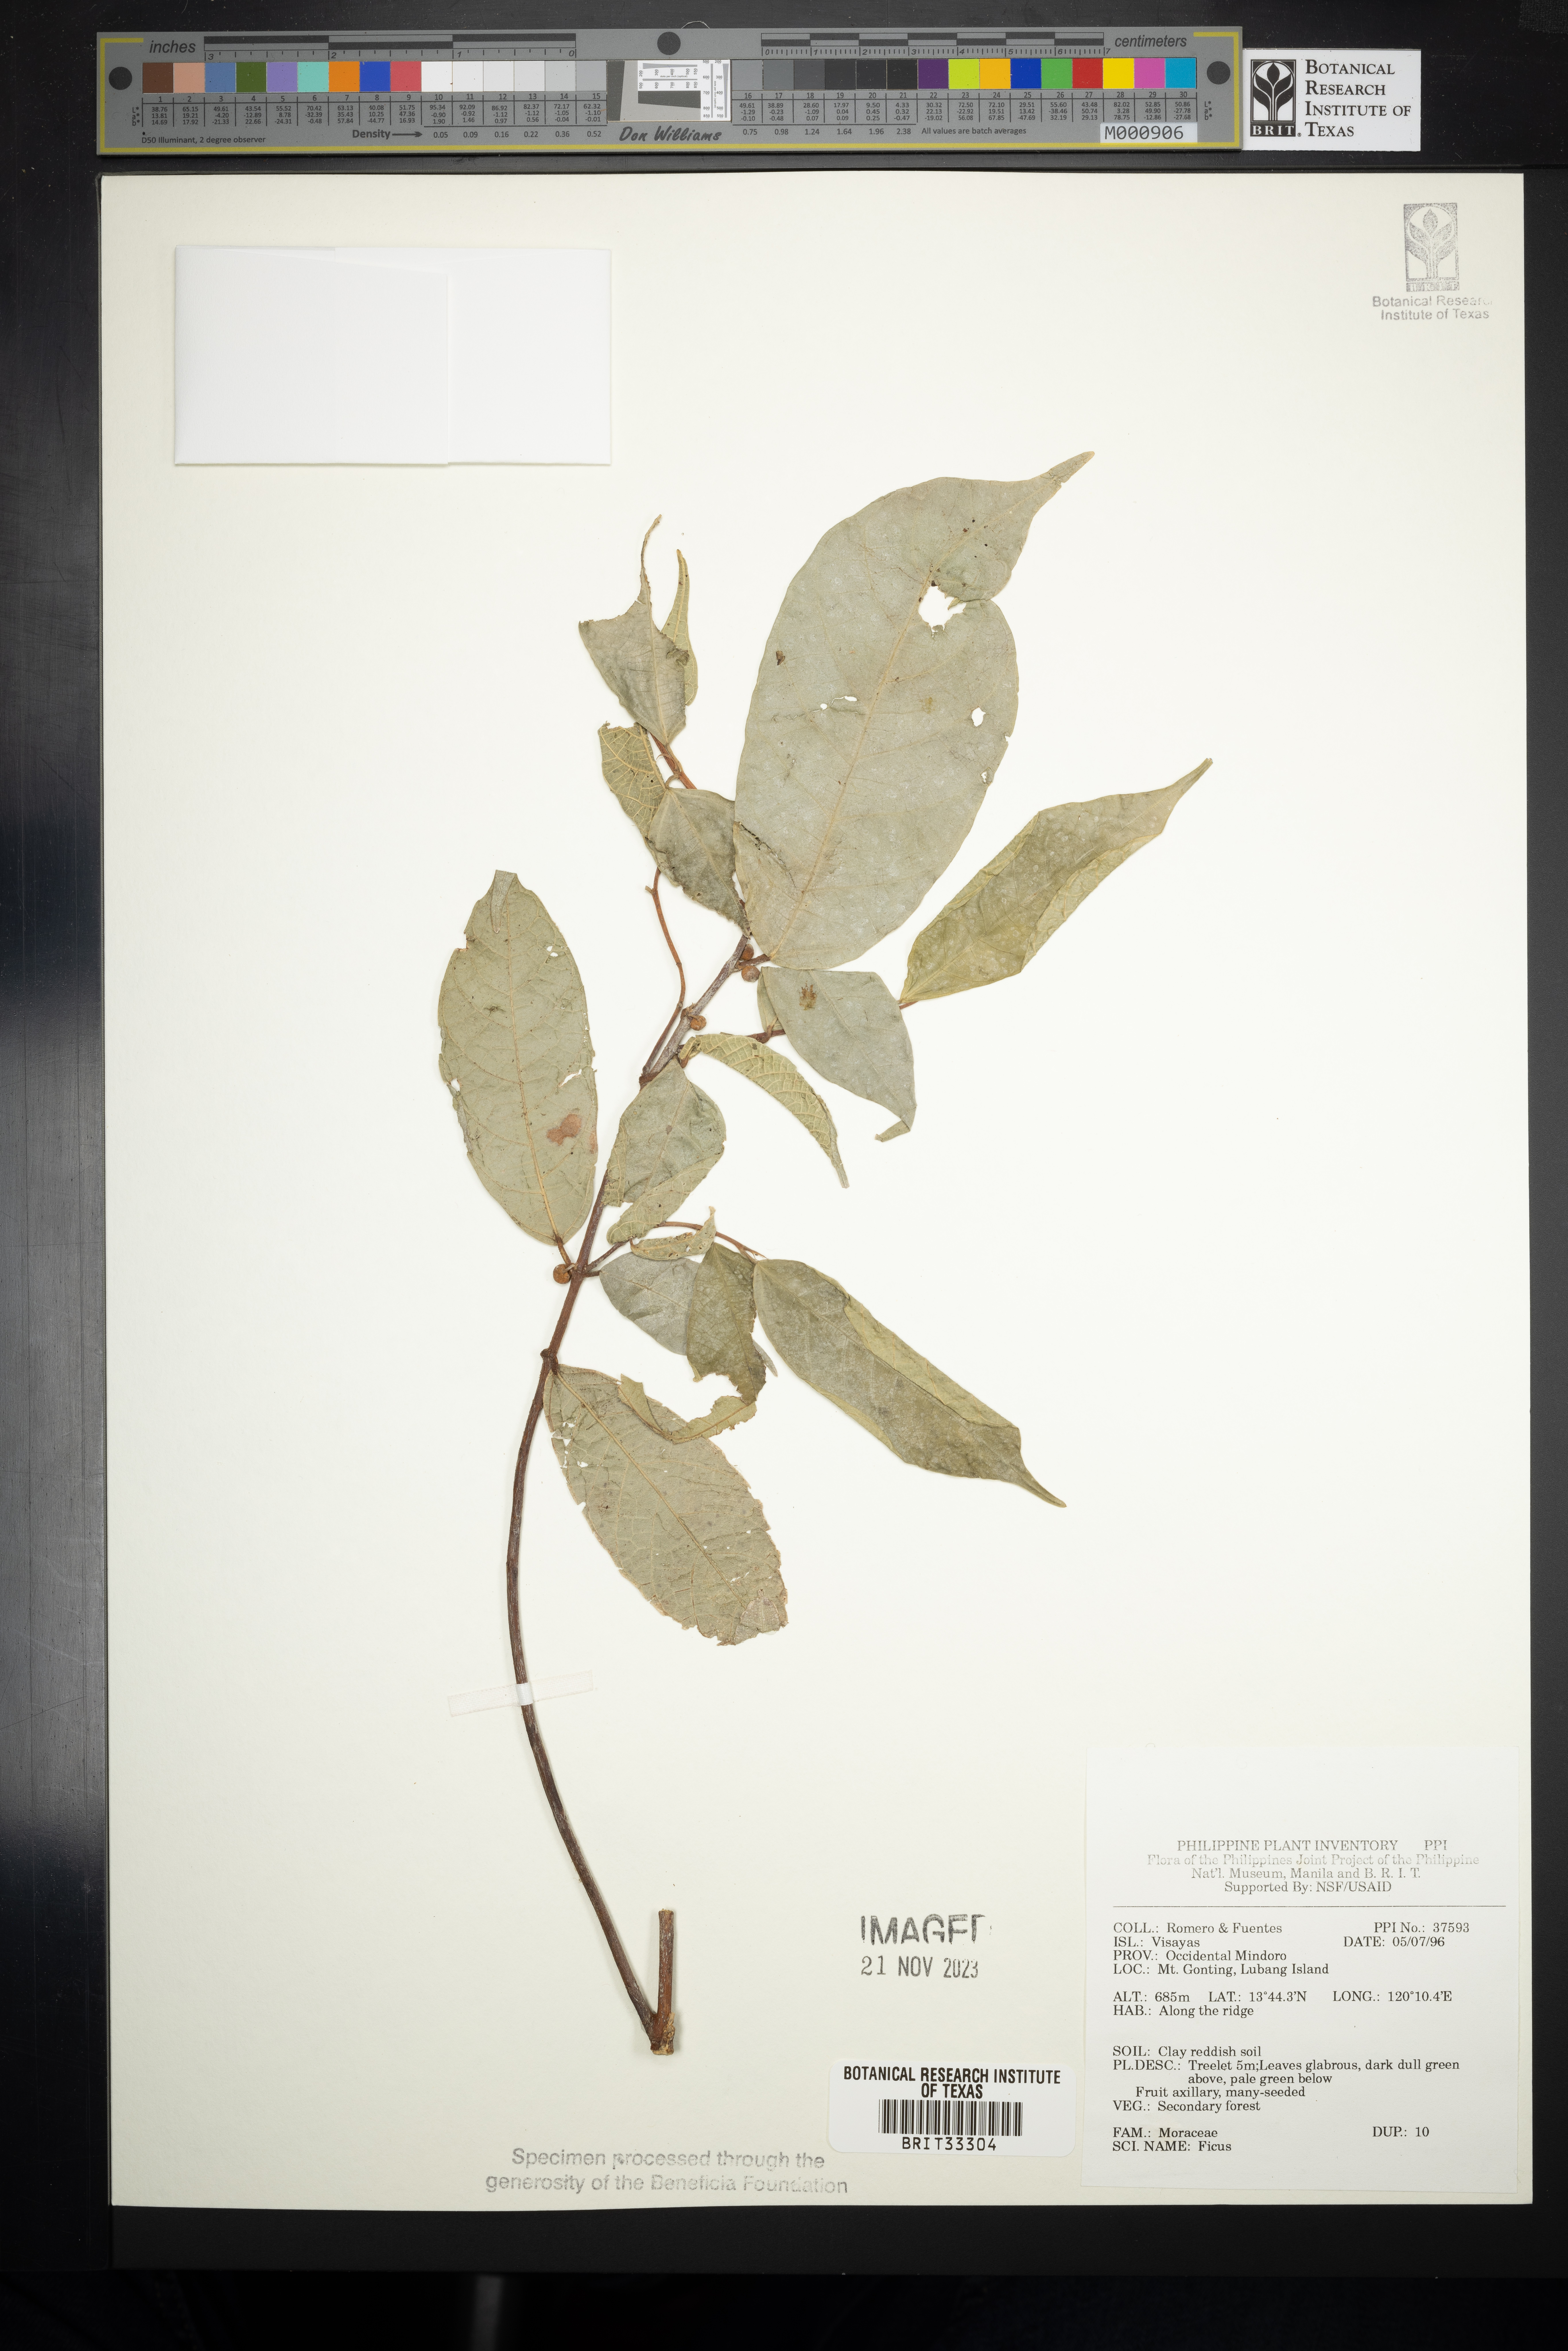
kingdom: Plantae
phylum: Tracheophyta
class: Magnoliopsida
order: Rosales
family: Moraceae
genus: Ficus
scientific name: Ficus
